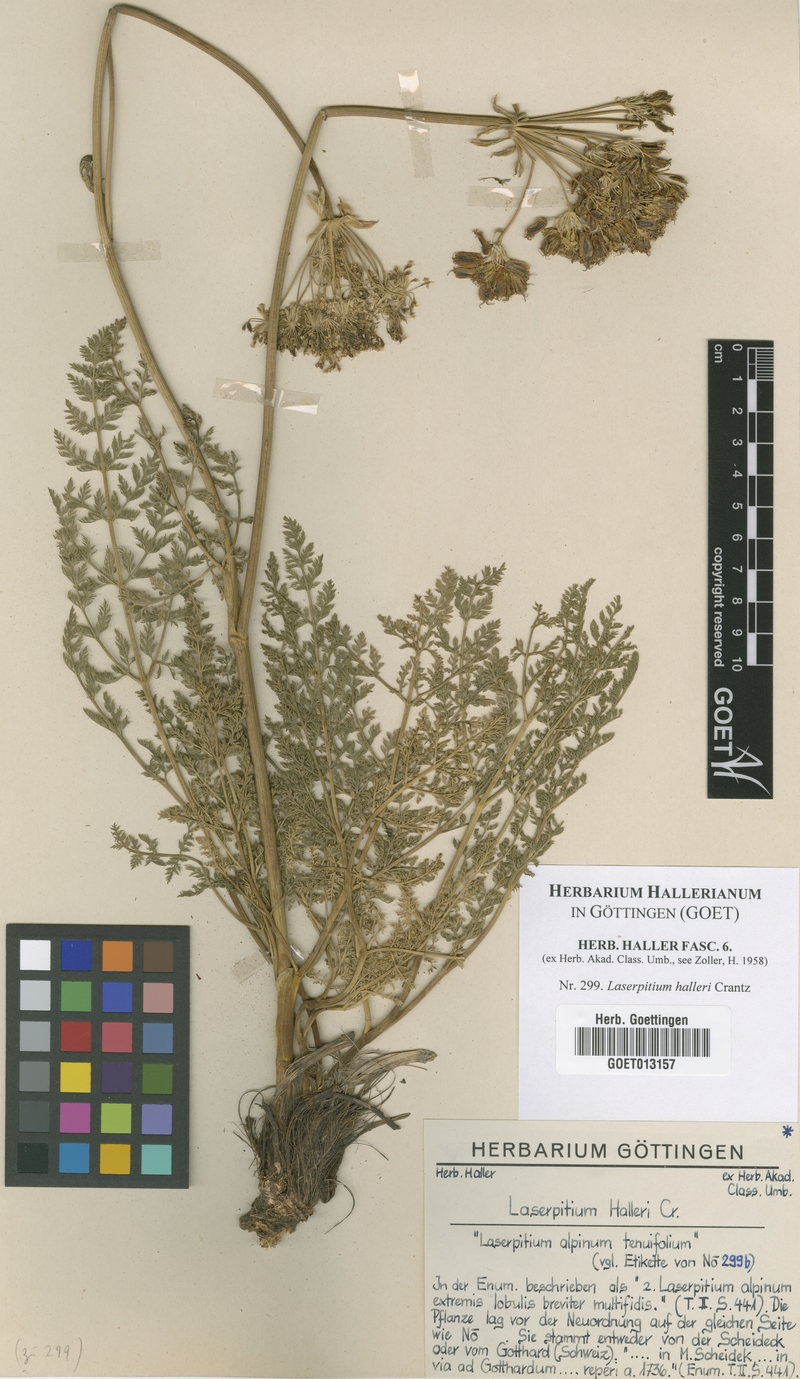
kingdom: Plantae
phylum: Tracheophyta
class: Magnoliopsida
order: Apiales
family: Apiaceae
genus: Laserpitium
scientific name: Laserpitium halleri
